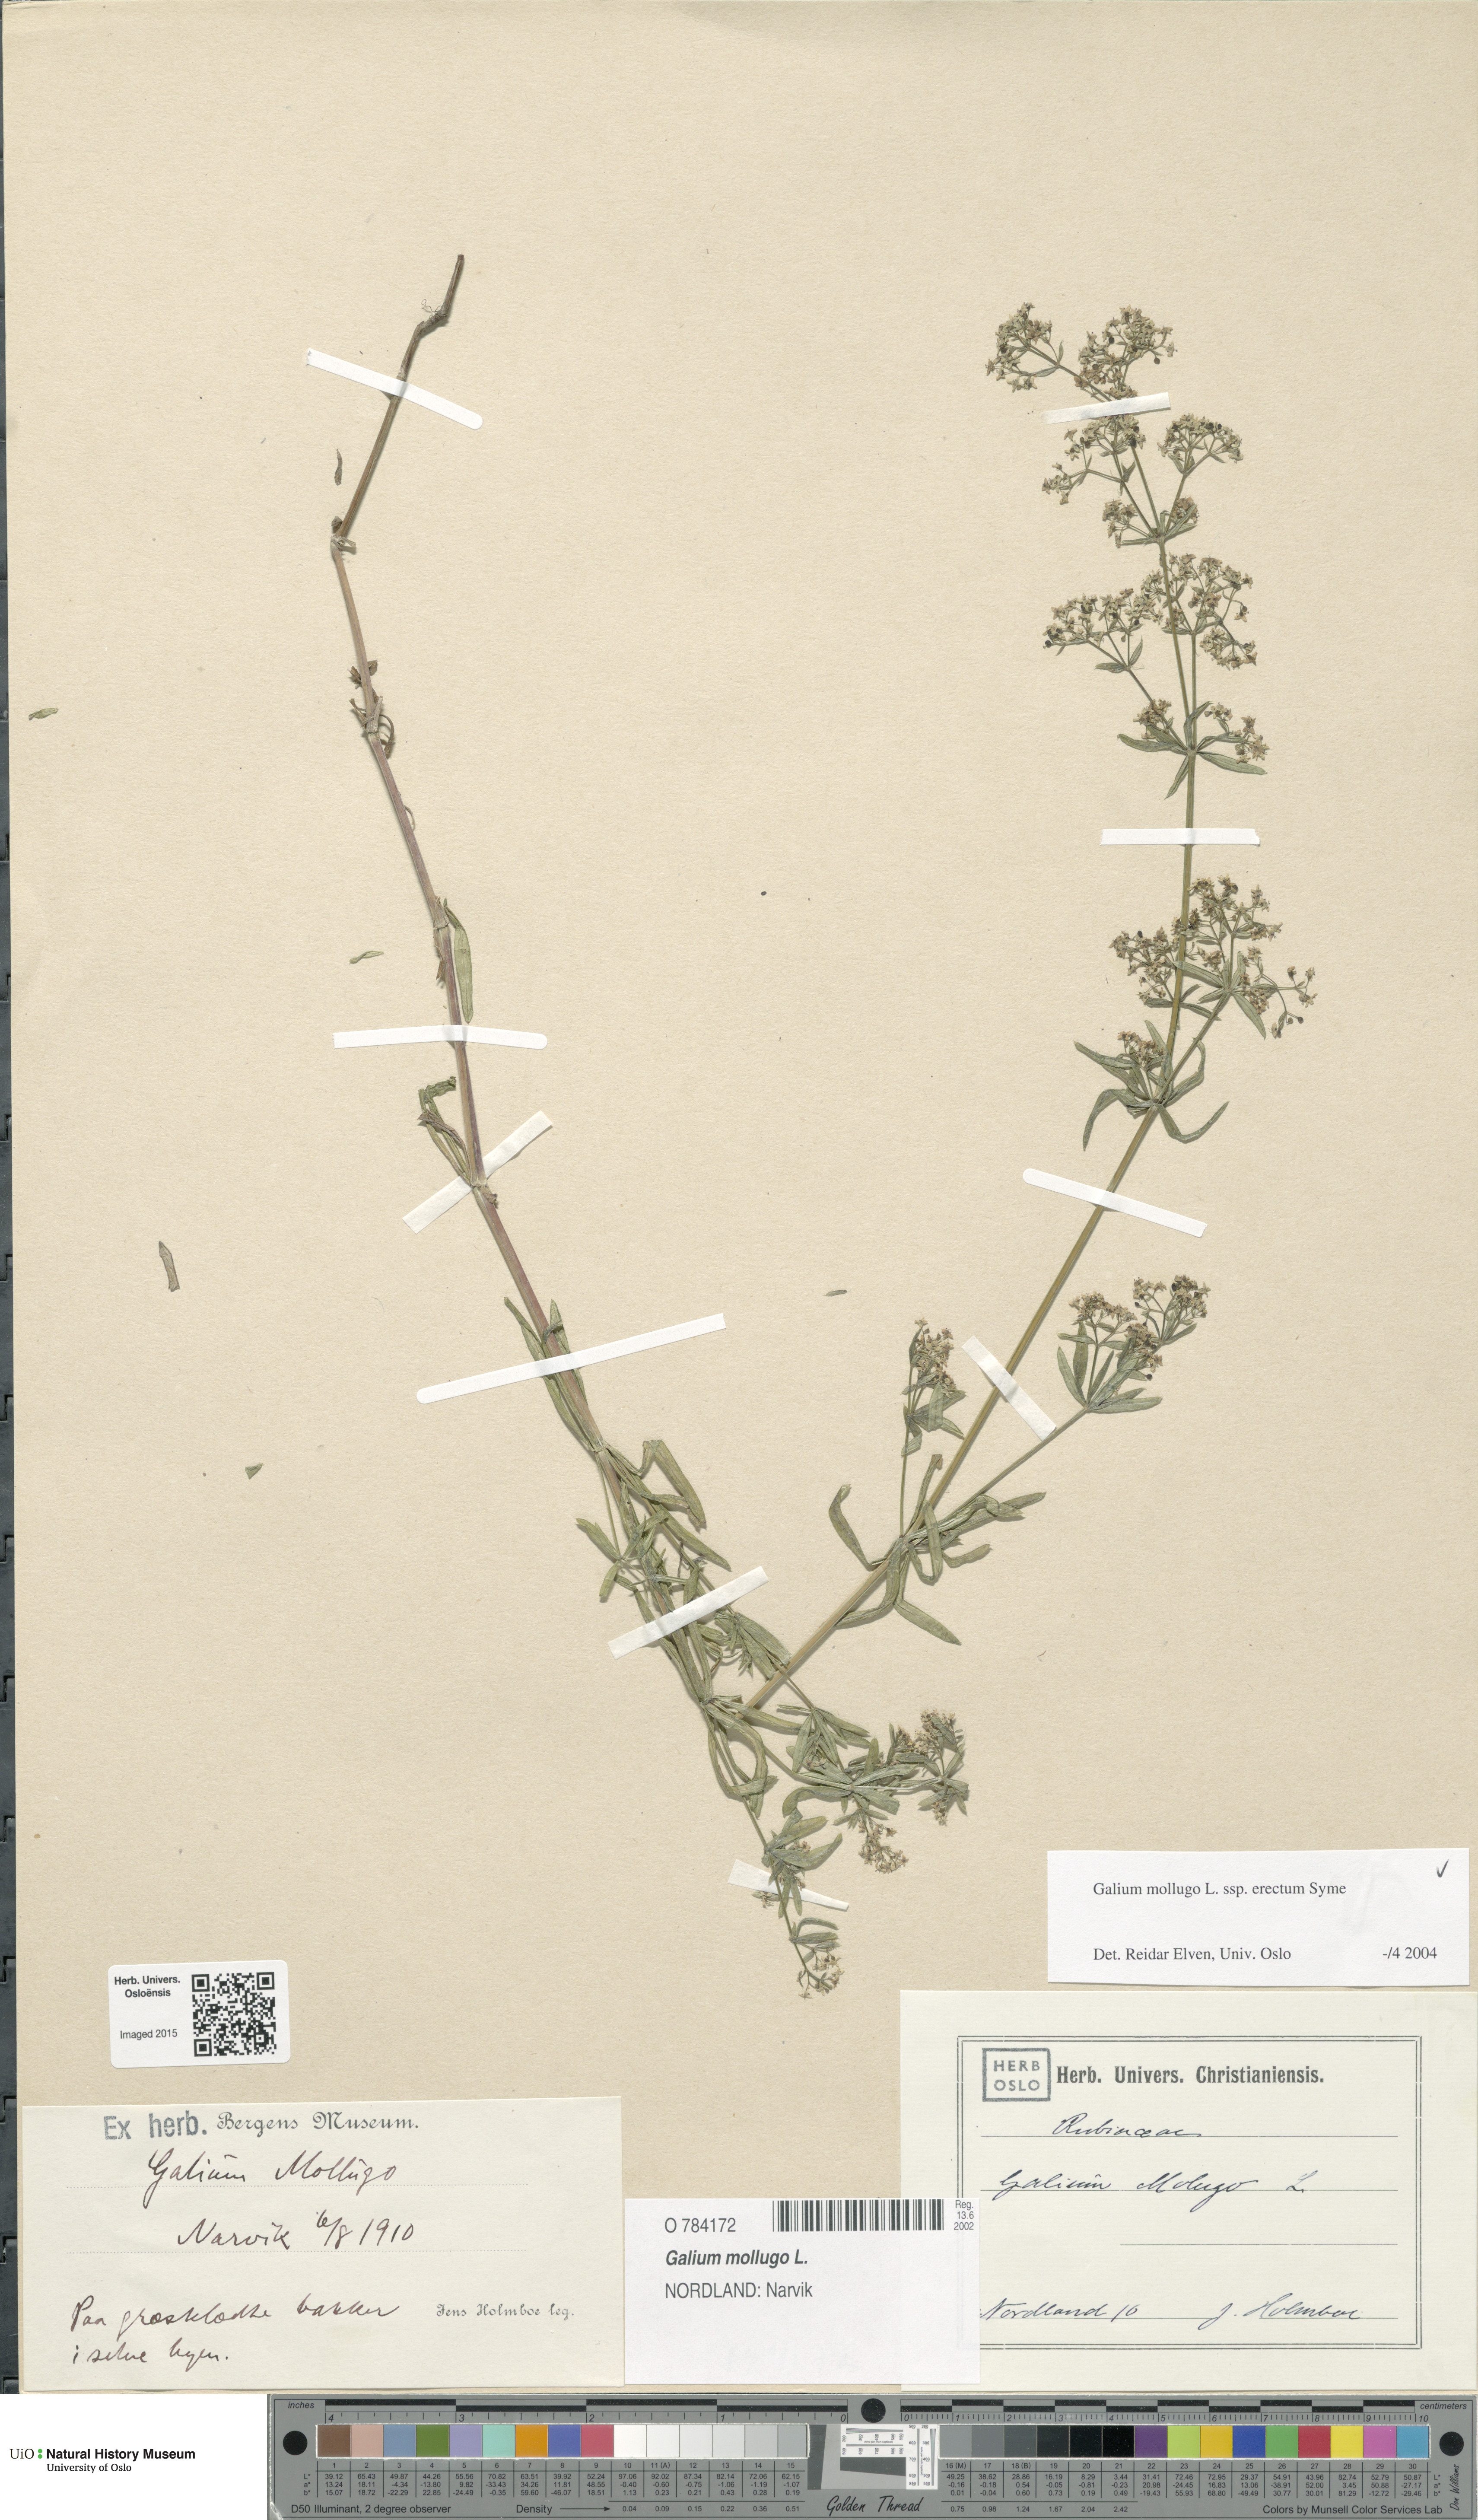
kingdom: Plantae
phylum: Tracheophyta
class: Magnoliopsida
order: Gentianales
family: Rubiaceae
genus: Galium
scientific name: Galium album
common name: White bedstraw
